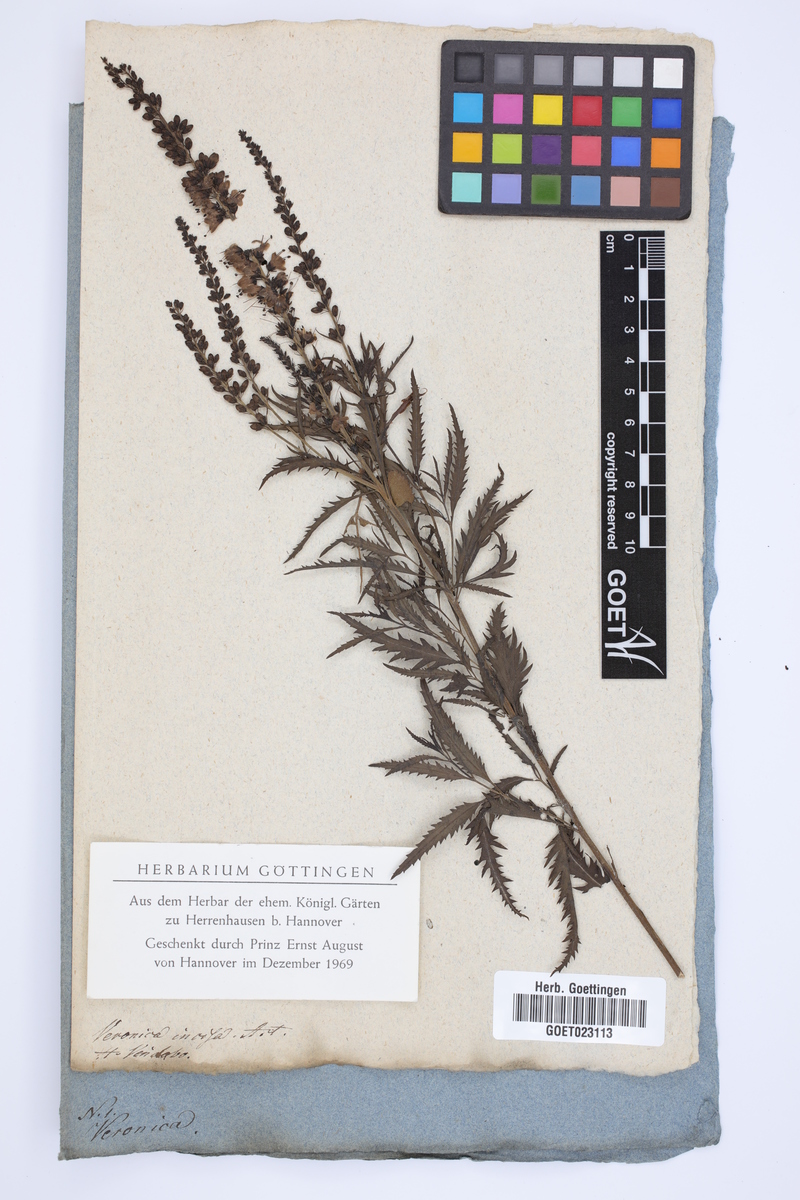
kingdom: Plantae
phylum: Tracheophyta
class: Magnoliopsida
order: Lamiales
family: Plantaginaceae
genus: Veronica
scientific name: Veronica spuria
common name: Bastard speedwell
